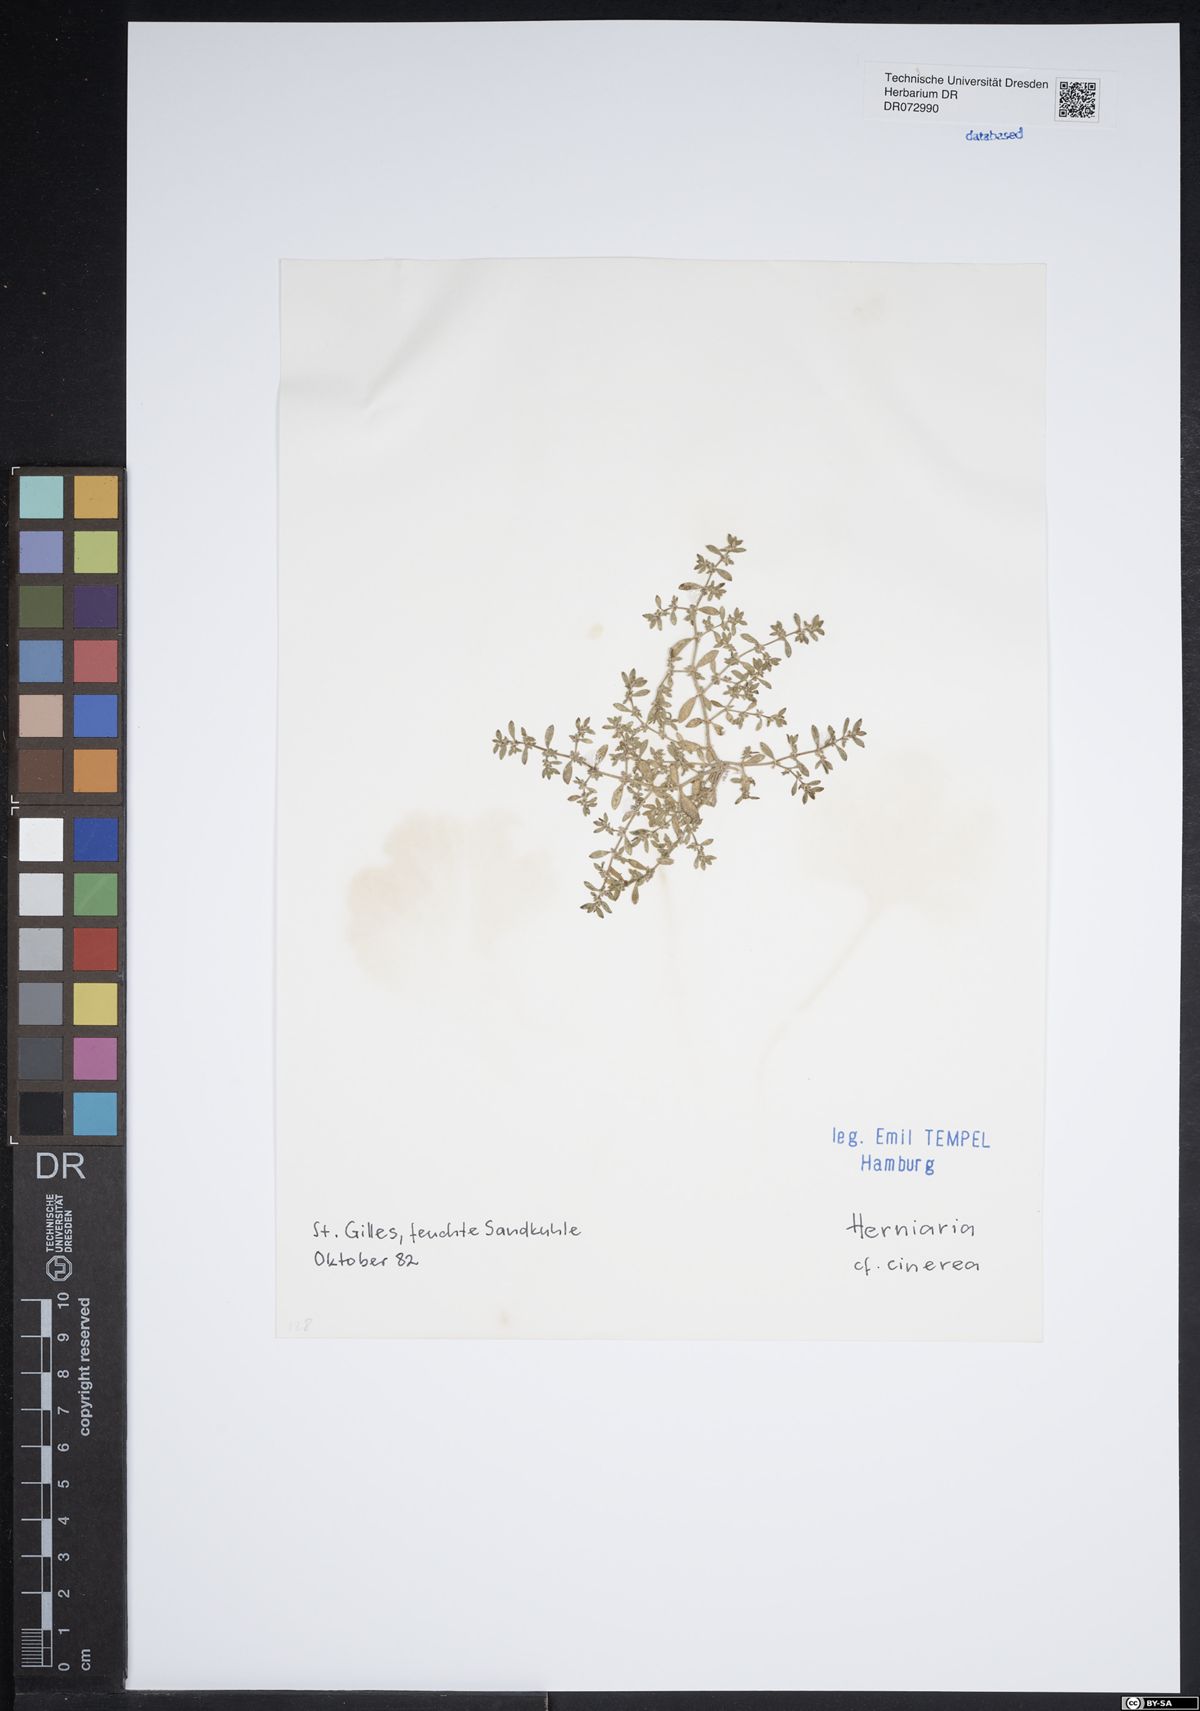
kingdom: Plantae
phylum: Tracheophyta
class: Magnoliopsida
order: Caryophyllales
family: Caryophyllaceae
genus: Herniaria
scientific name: Herniaria cinerea
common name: Hairy rupturewort
